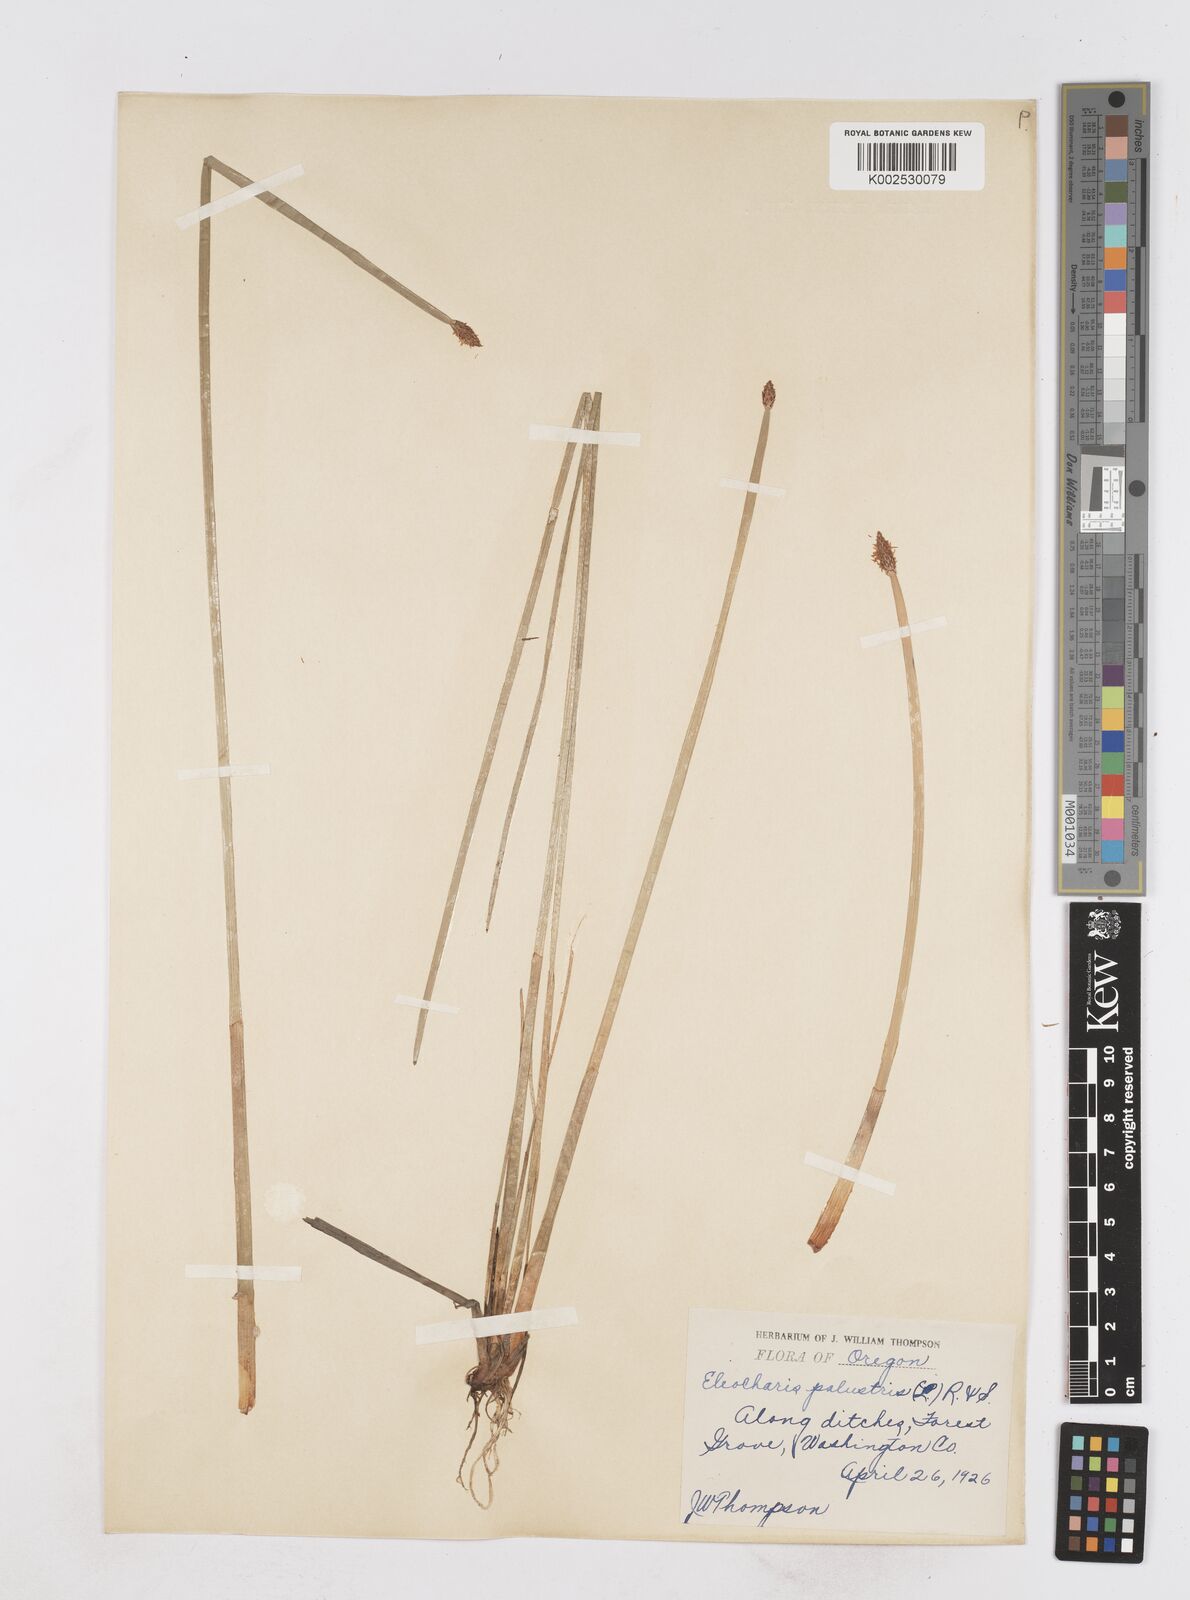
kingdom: Plantae
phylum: Tracheophyta
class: Liliopsida
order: Poales
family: Cyperaceae
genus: Eleocharis
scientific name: Eleocharis palustris
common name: Common spike-rush
